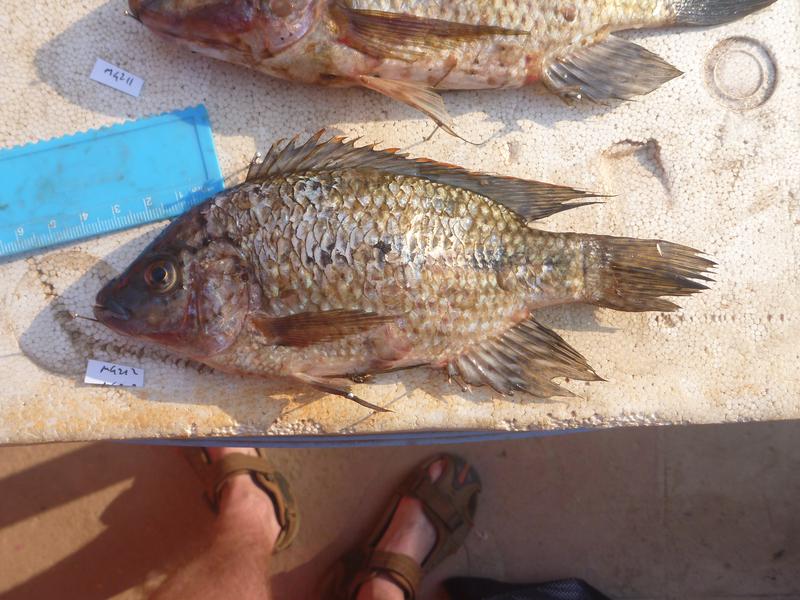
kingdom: Animalia
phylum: Chordata
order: Perciformes
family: Cichlidae
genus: Oreochromis
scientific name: Oreochromis karomo
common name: Karomo
